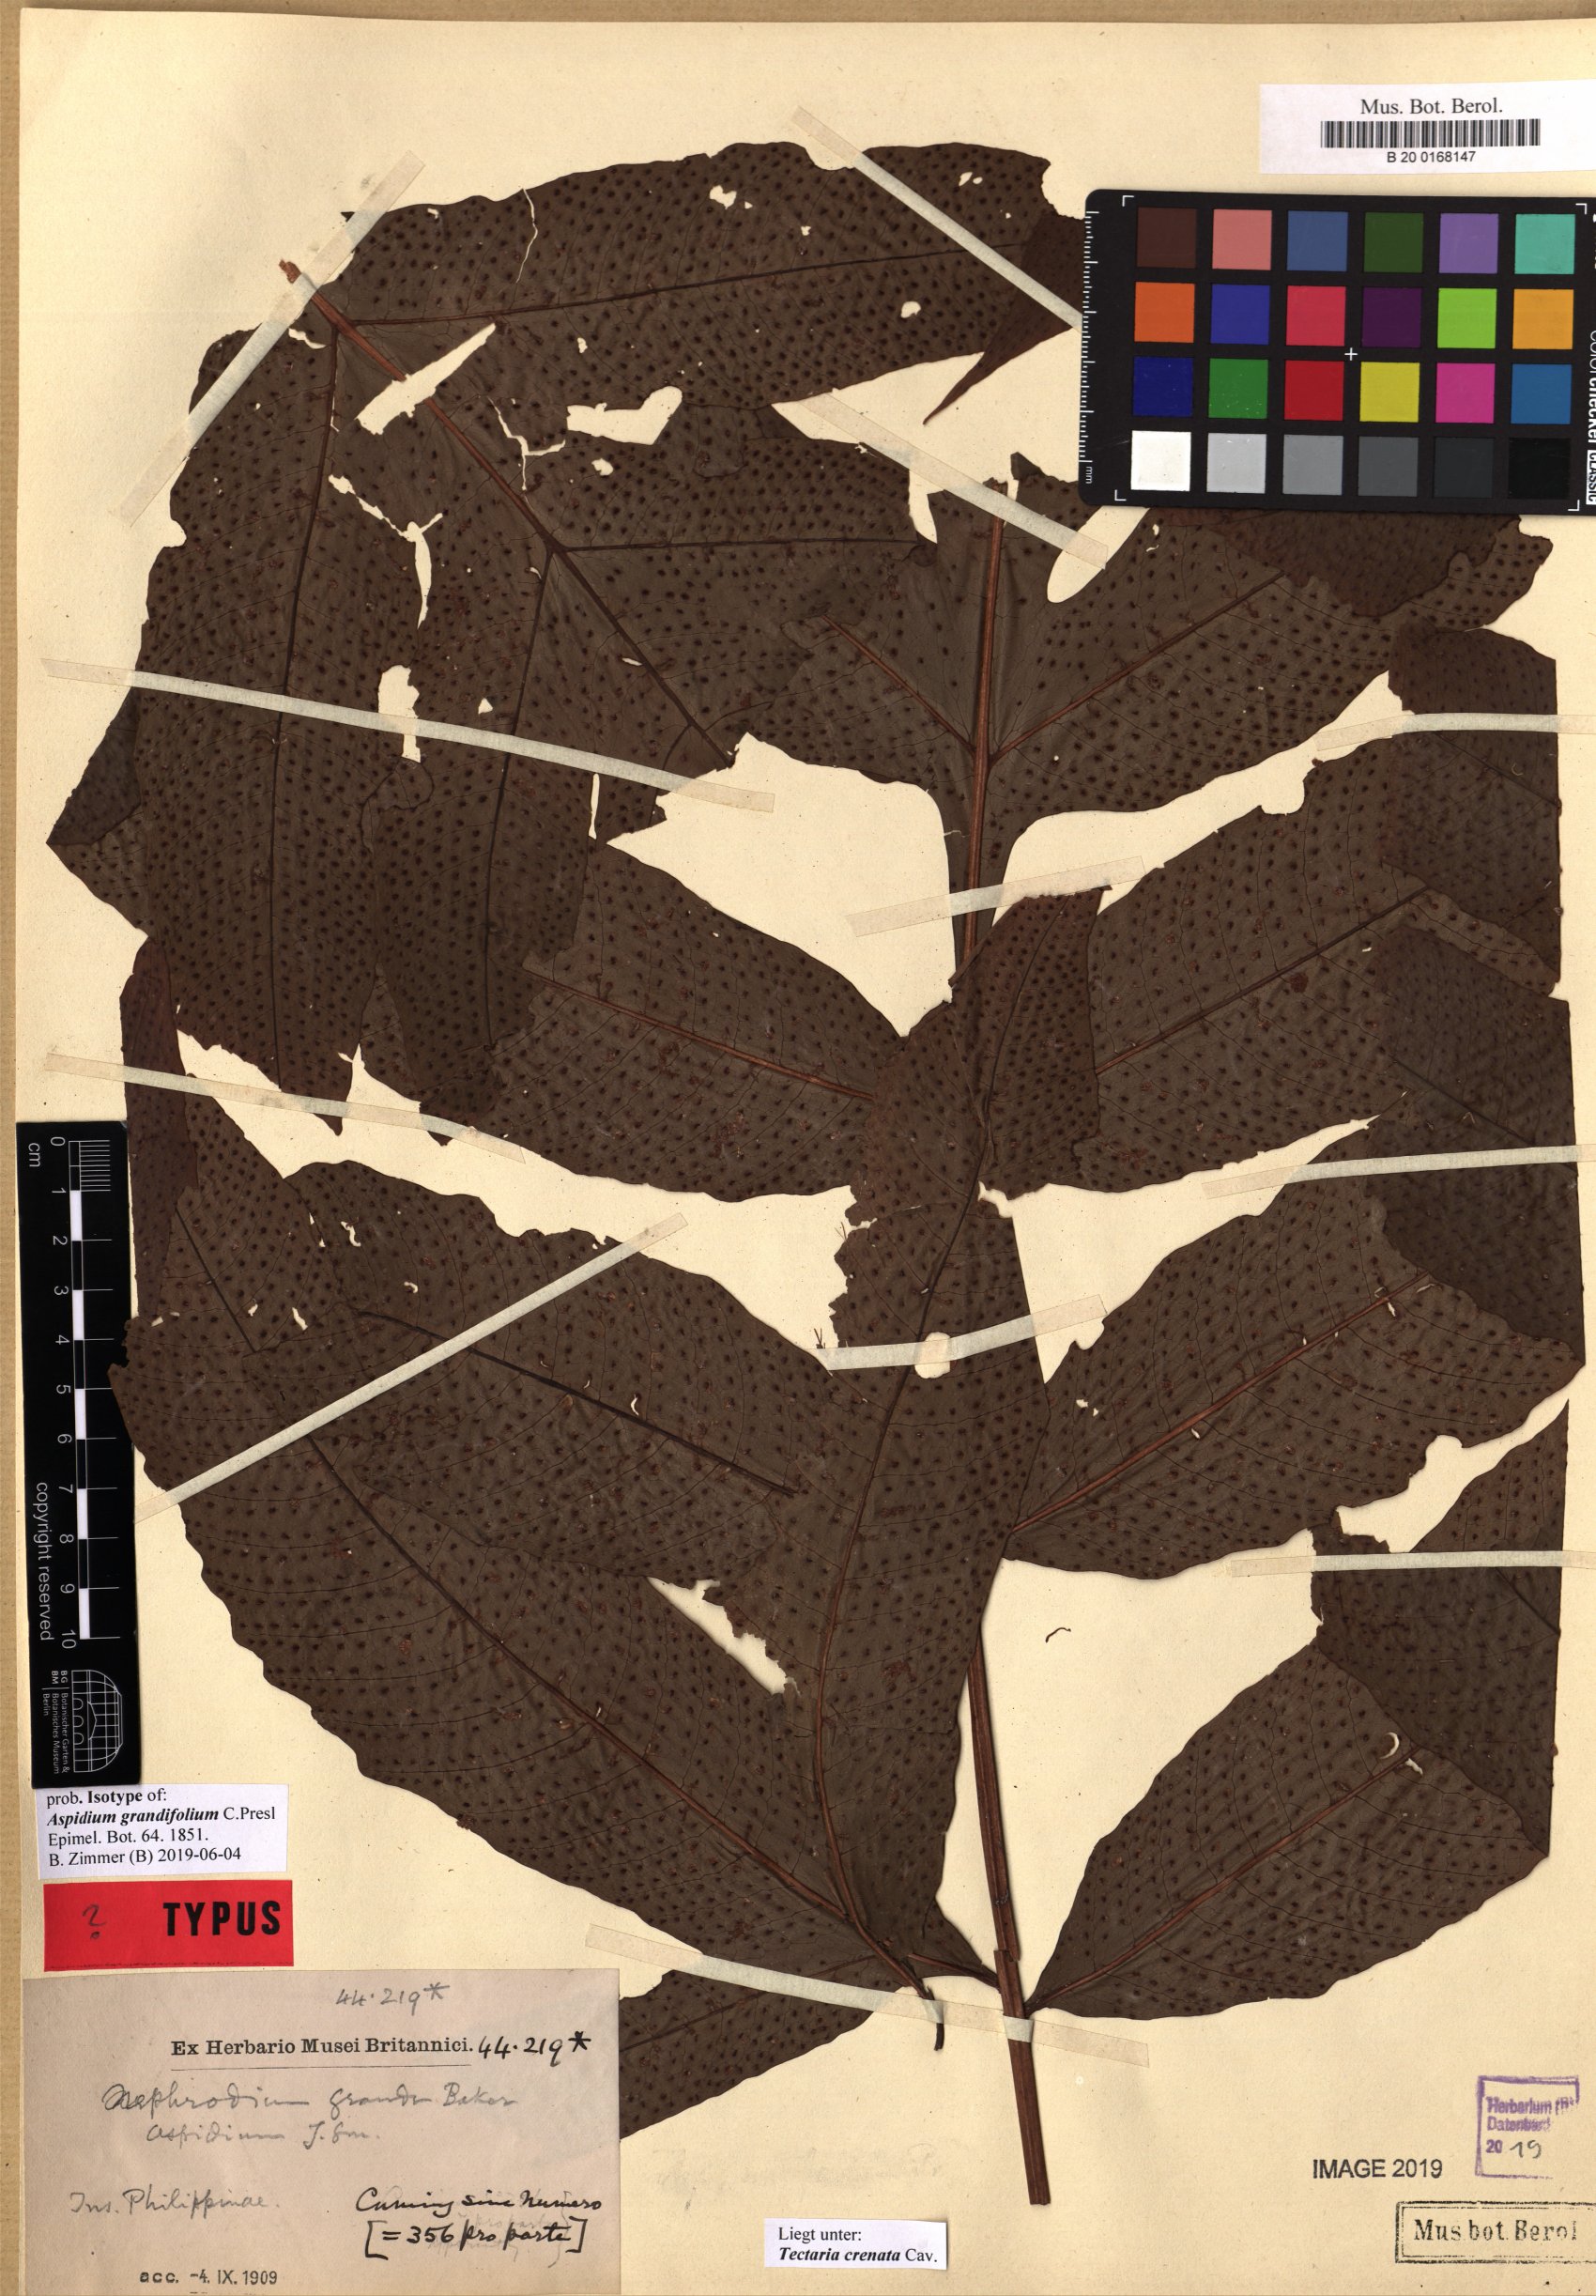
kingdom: Plantae
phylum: Tracheophyta
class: Polypodiopsida
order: Polypodiales
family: Tectariaceae
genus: Tectaria
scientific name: Tectaria crenata
